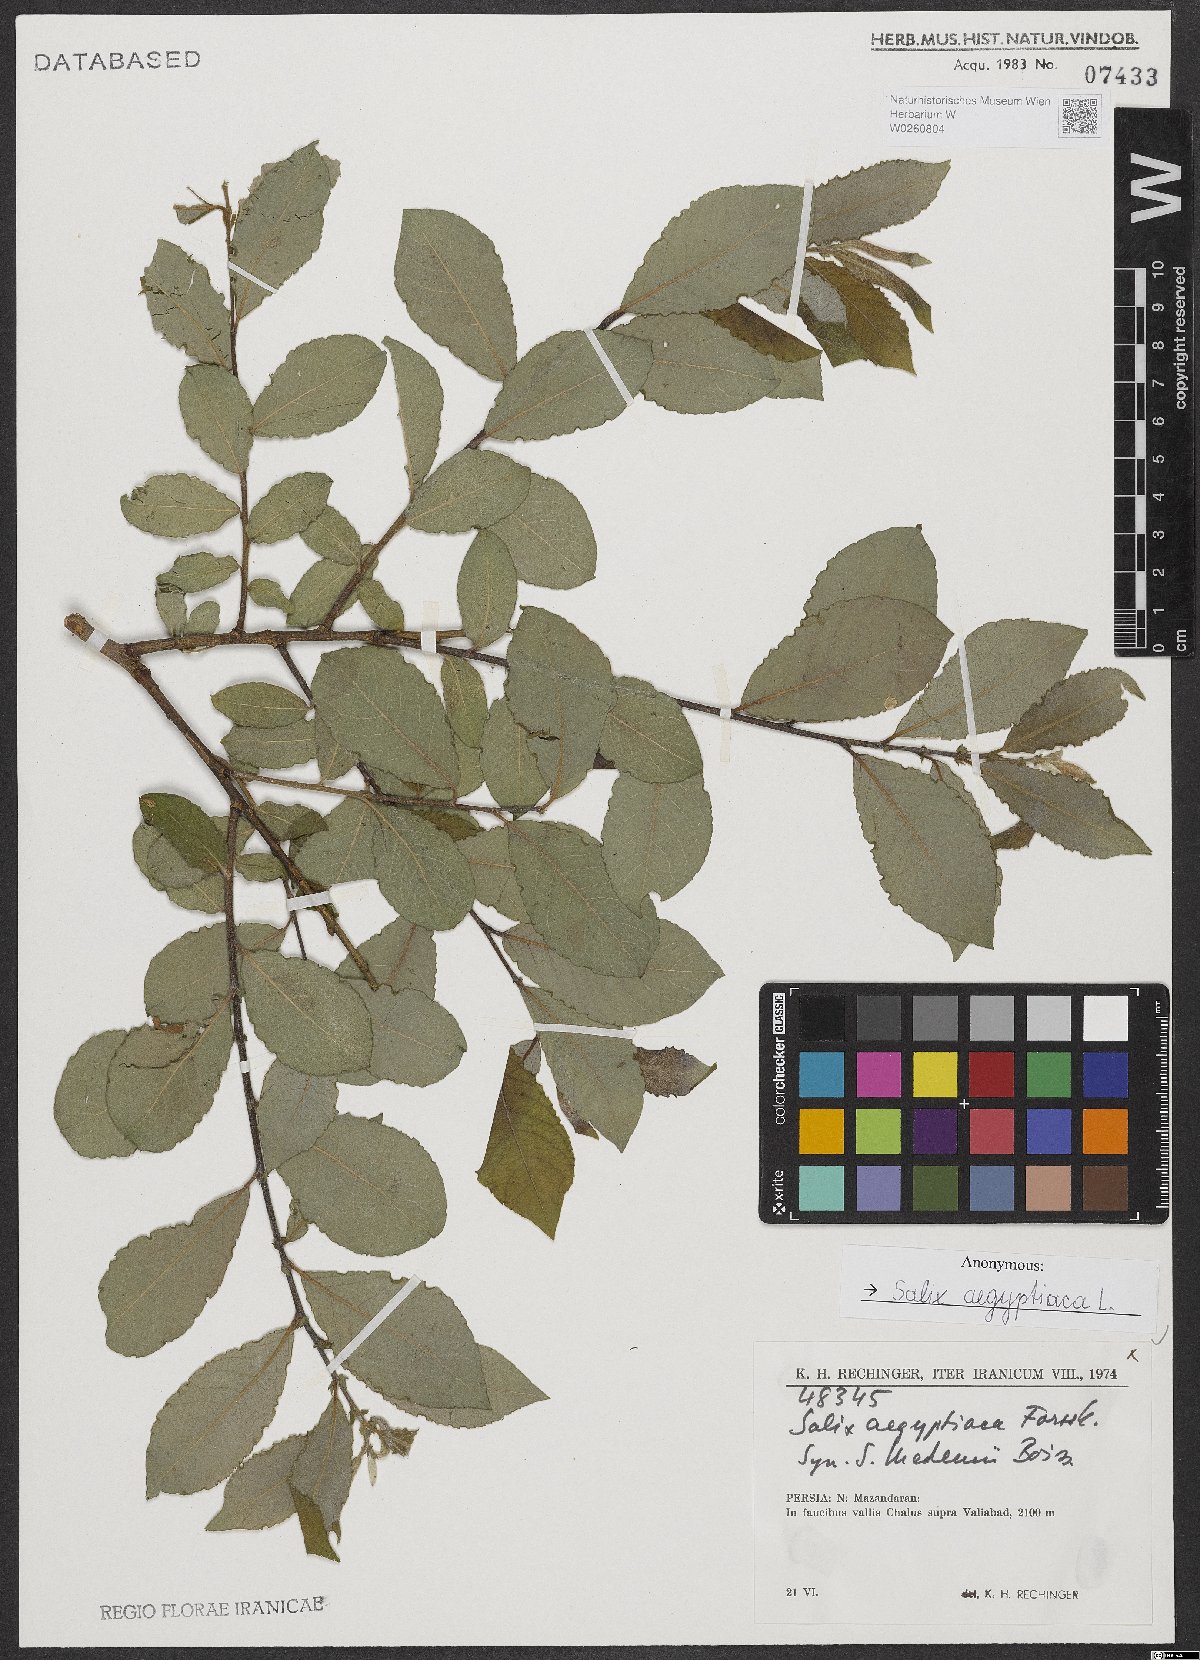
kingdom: Plantae
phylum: Tracheophyta
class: Magnoliopsida
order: Malpighiales
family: Salicaceae
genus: Salix
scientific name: Salix aegyptiaca
